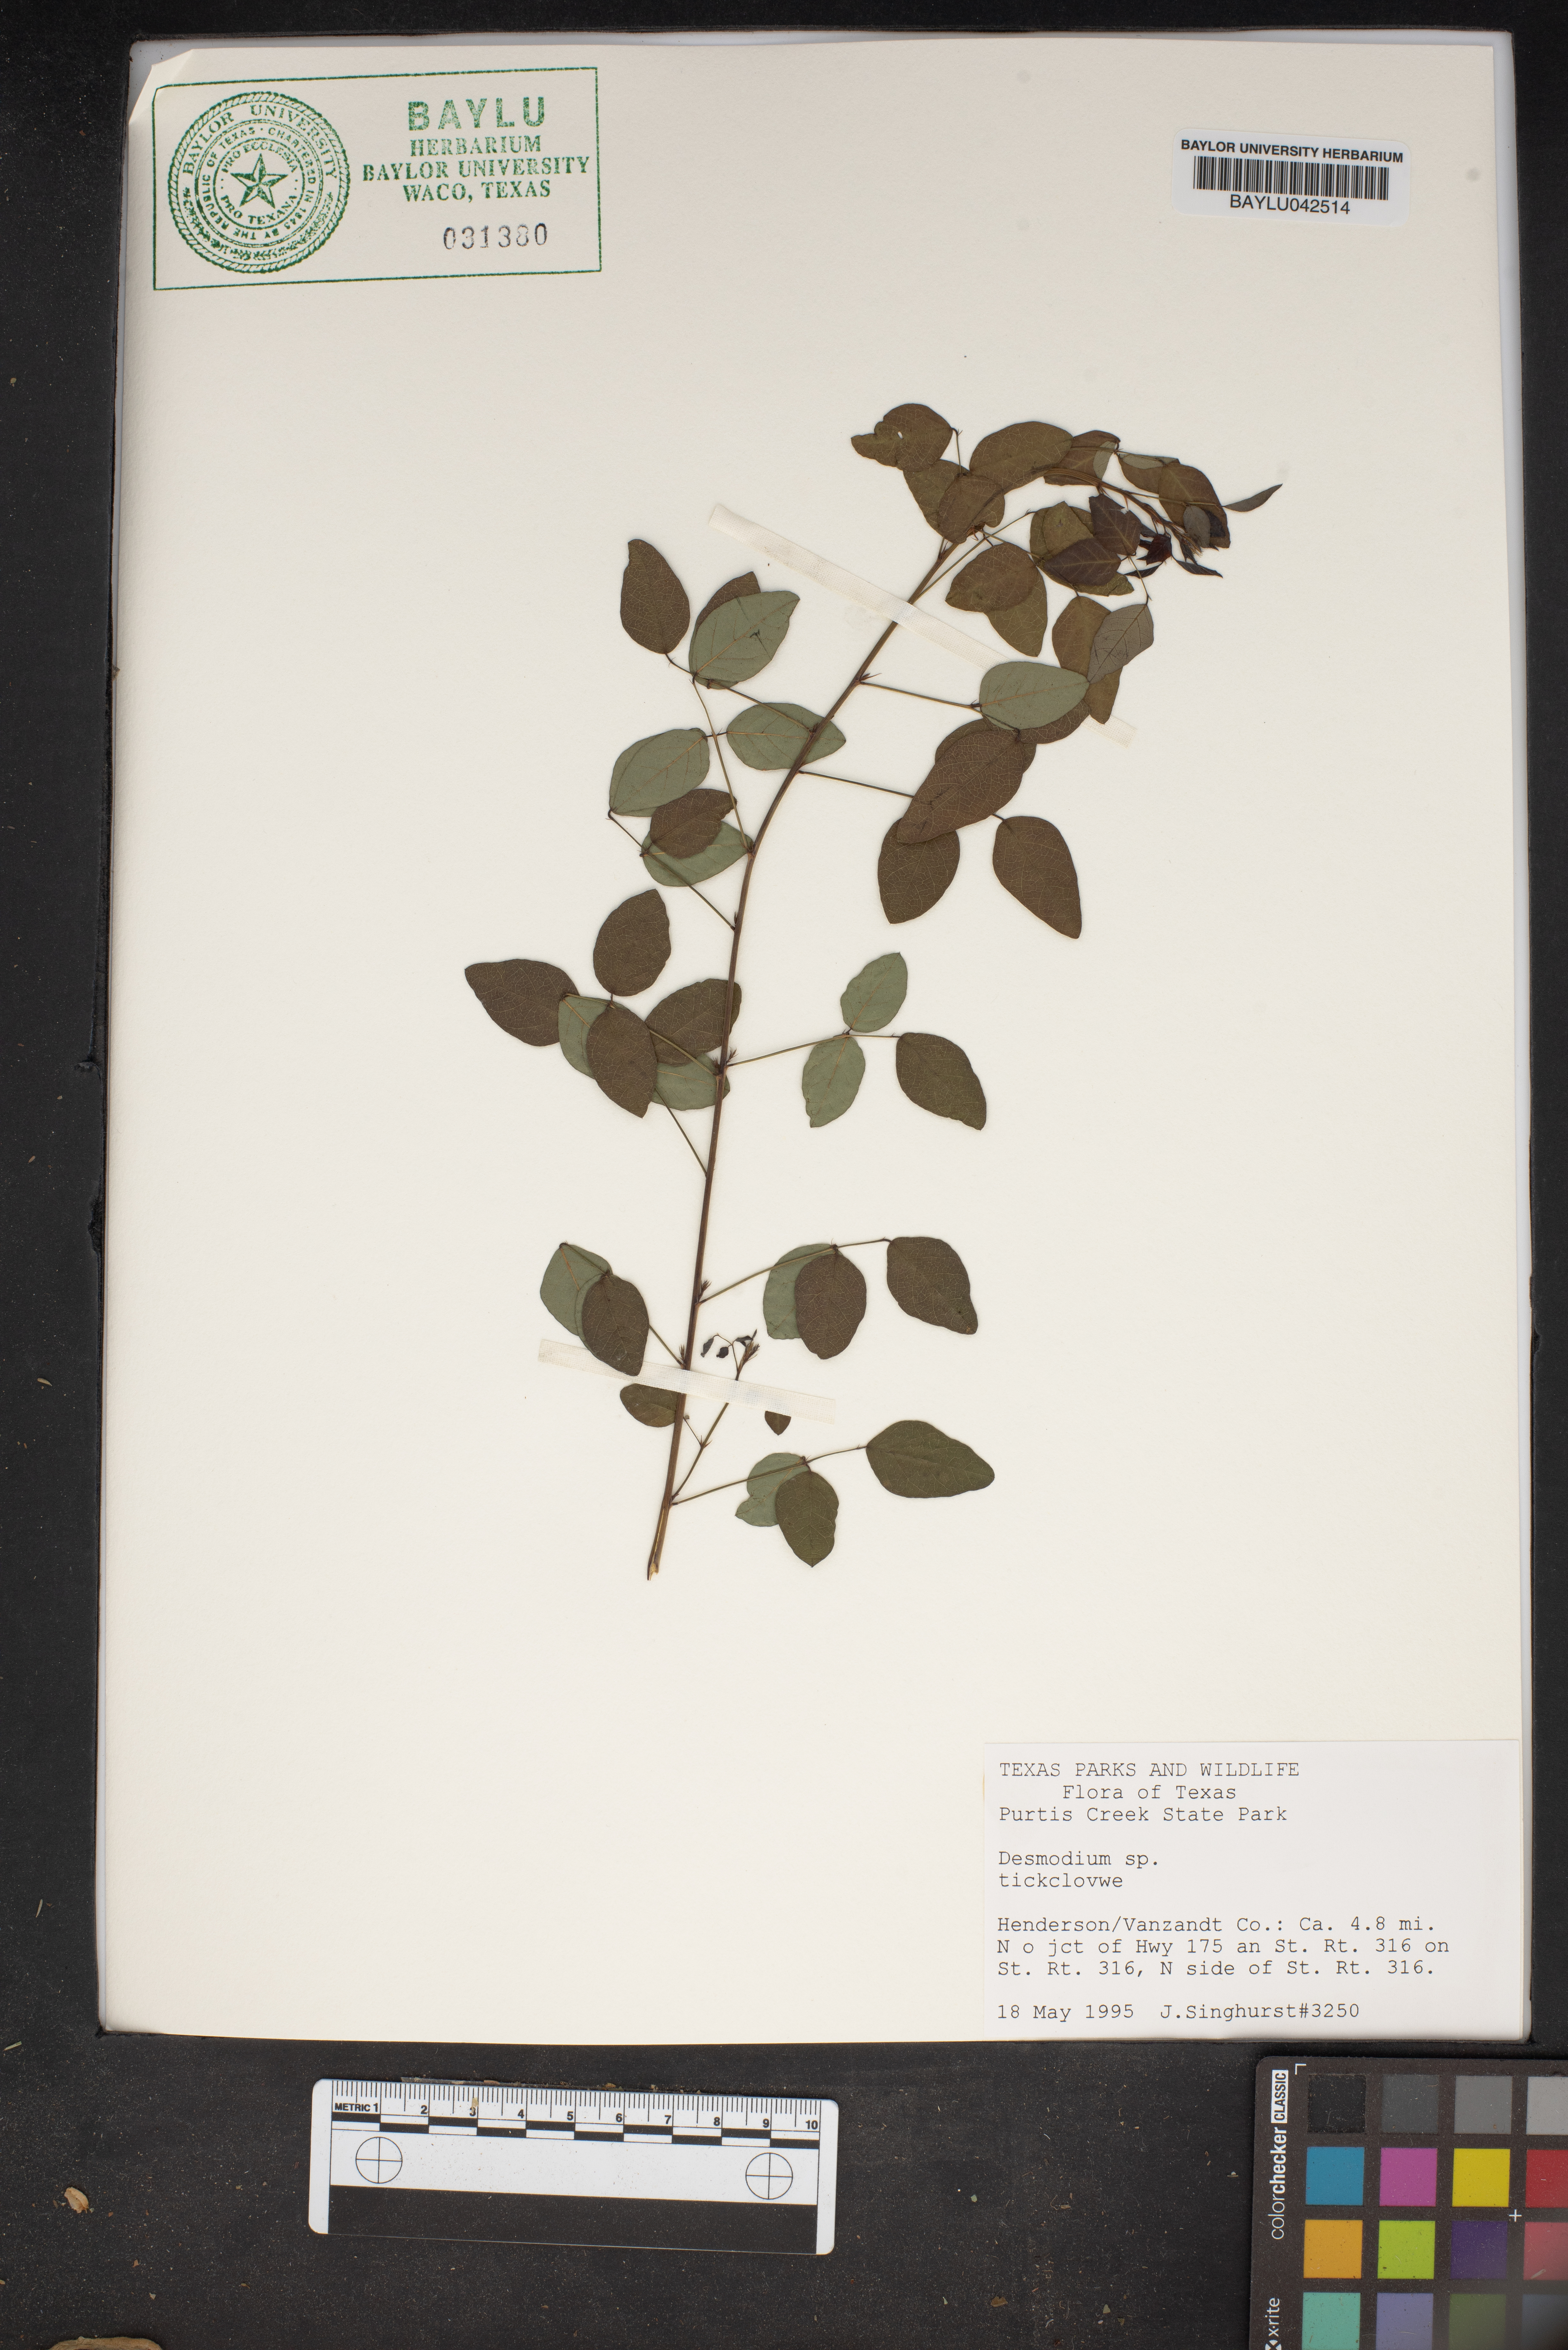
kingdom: Plantae
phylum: Tracheophyta
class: Magnoliopsida
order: Fabales
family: Fabaceae
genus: Desmodium
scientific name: Desmodium
